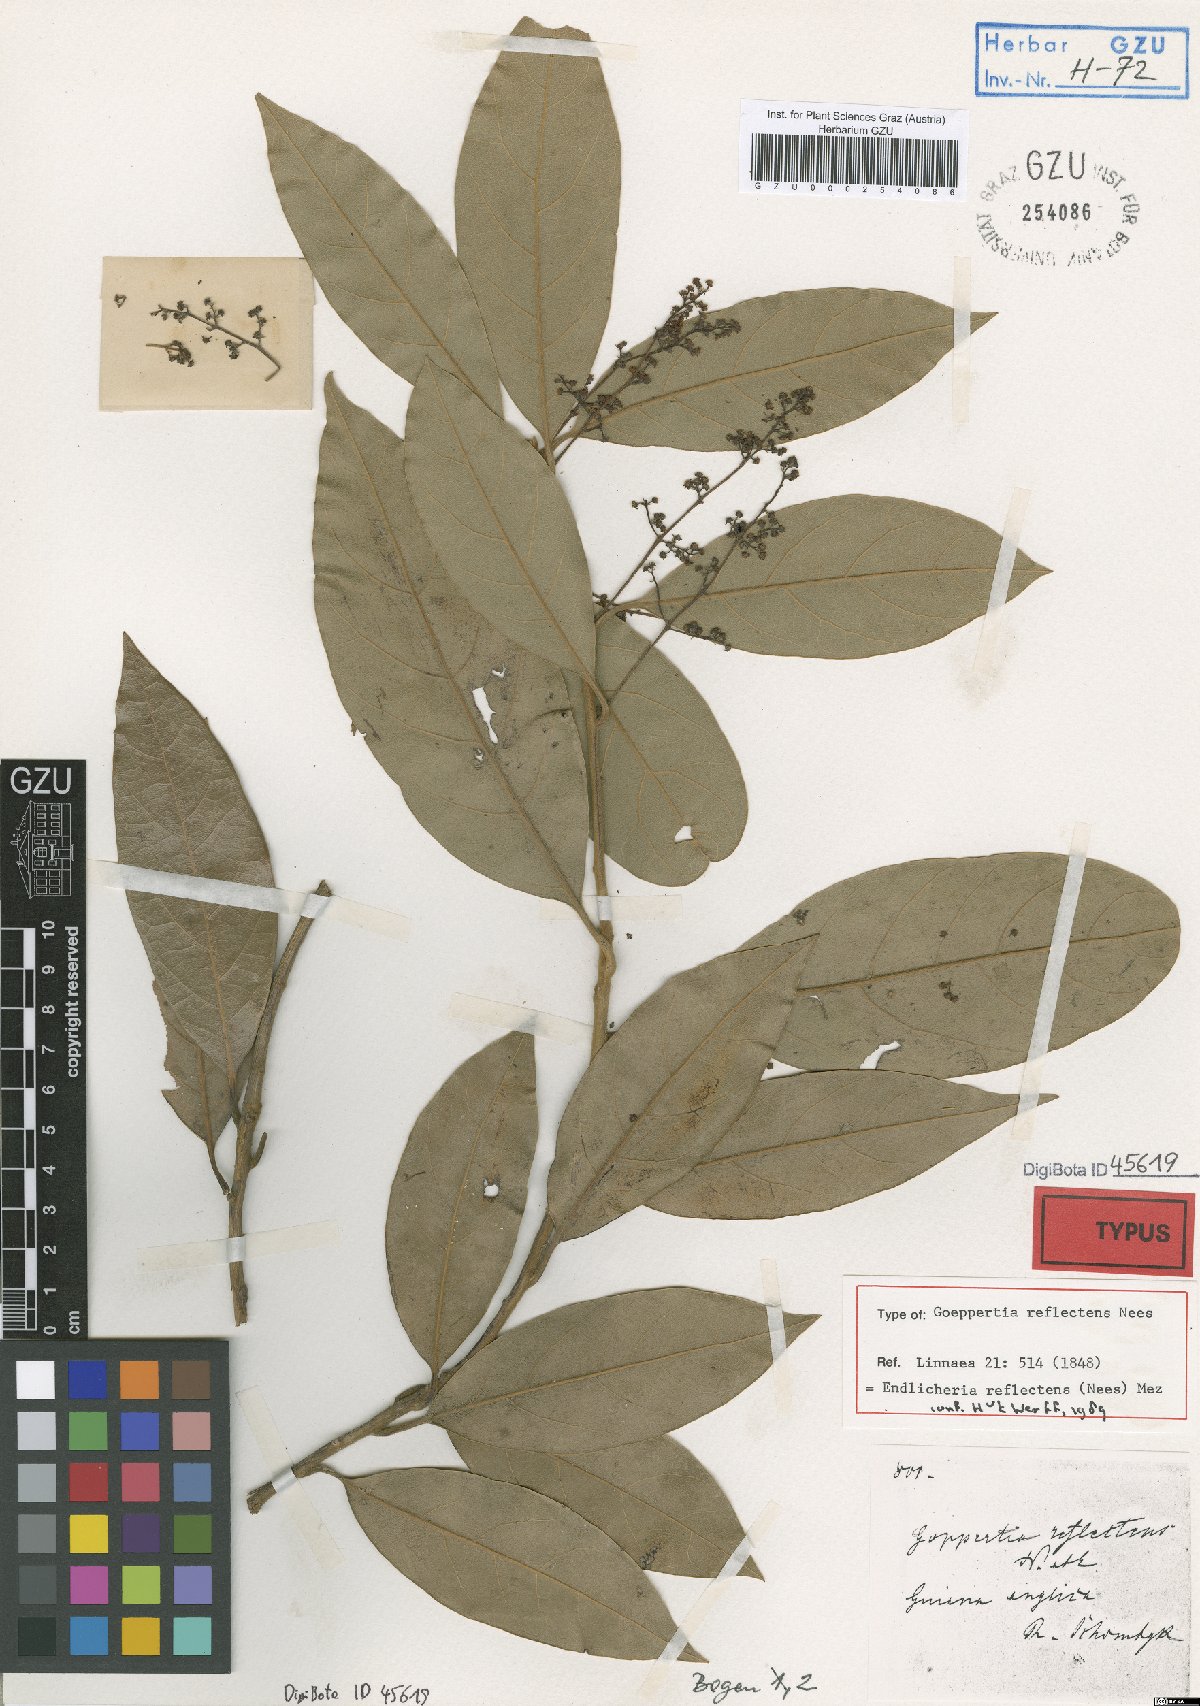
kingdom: Plantae
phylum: Tracheophyta
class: Magnoliopsida
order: Laurales
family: Lauraceae
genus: Endlicheria
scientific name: Endlicheria reflectens
